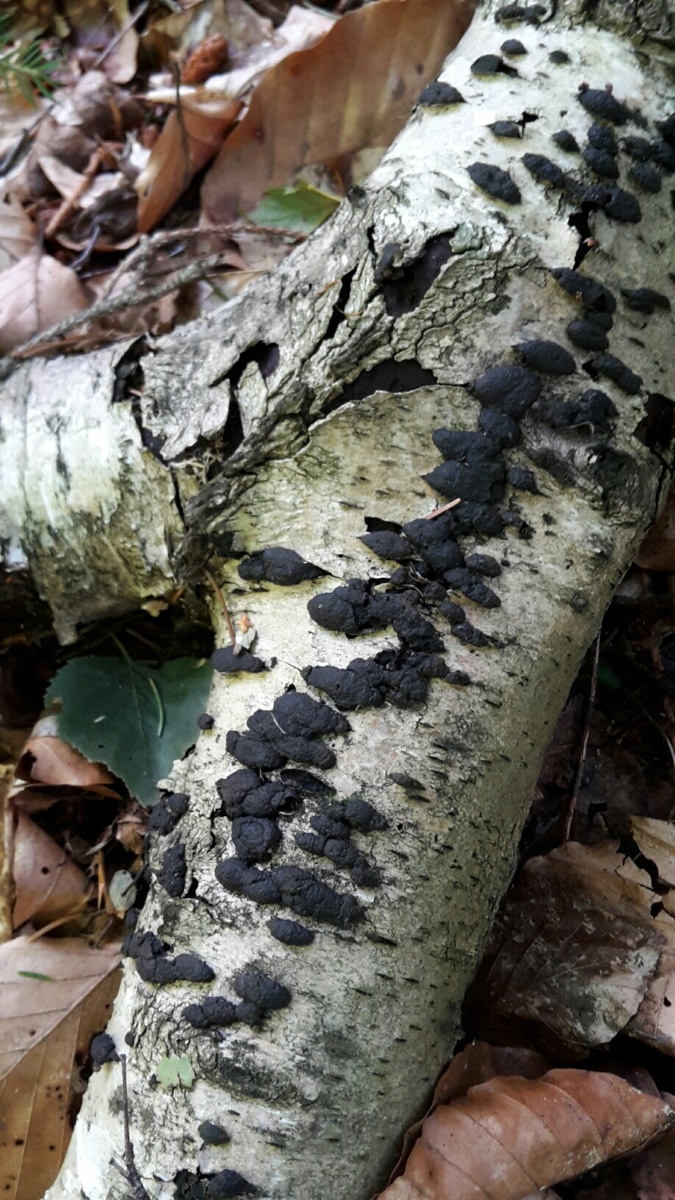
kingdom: Fungi
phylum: Ascomycota
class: Sordariomycetes
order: Xylariales
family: Hypoxylaceae
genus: Jackrogersella
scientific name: Jackrogersella multiformis
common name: foranderlig kulbær
